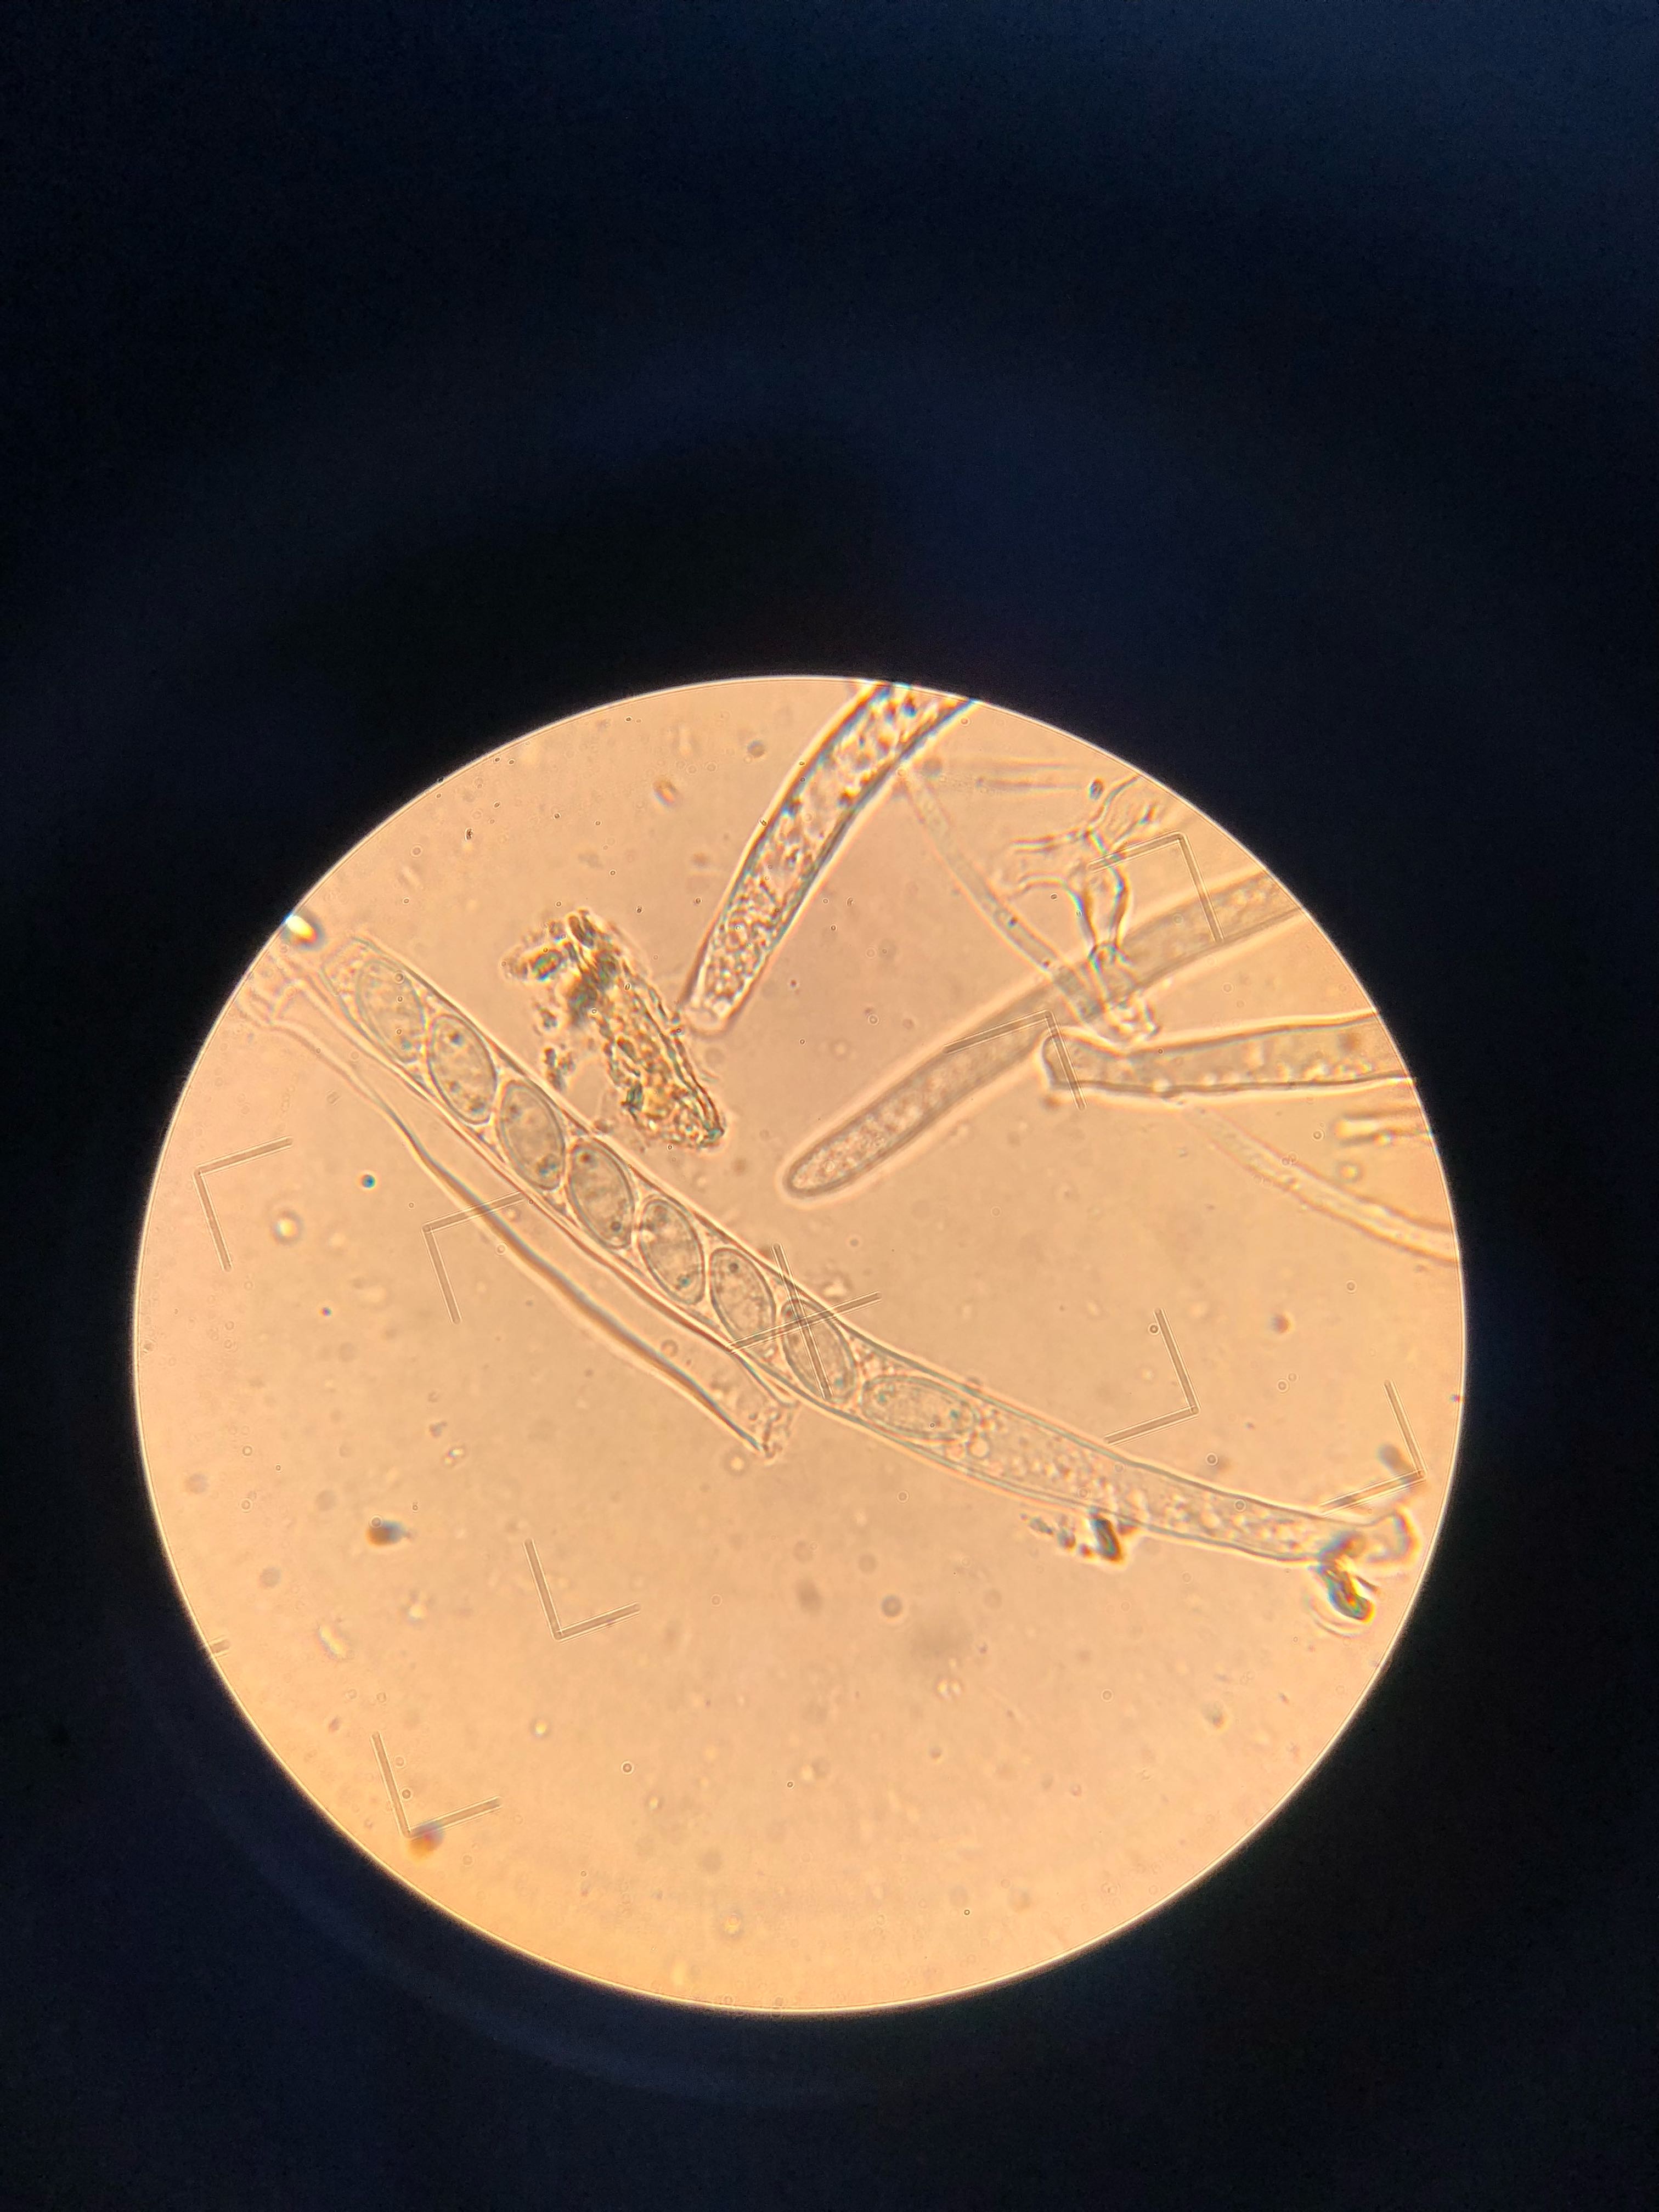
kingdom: Fungi
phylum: Ascomycota
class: Leotiomycetes
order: Helotiales
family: Sclerotiniaceae
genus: Dumontinia
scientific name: Dumontinia tuberosa
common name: anemone-knoldskive
